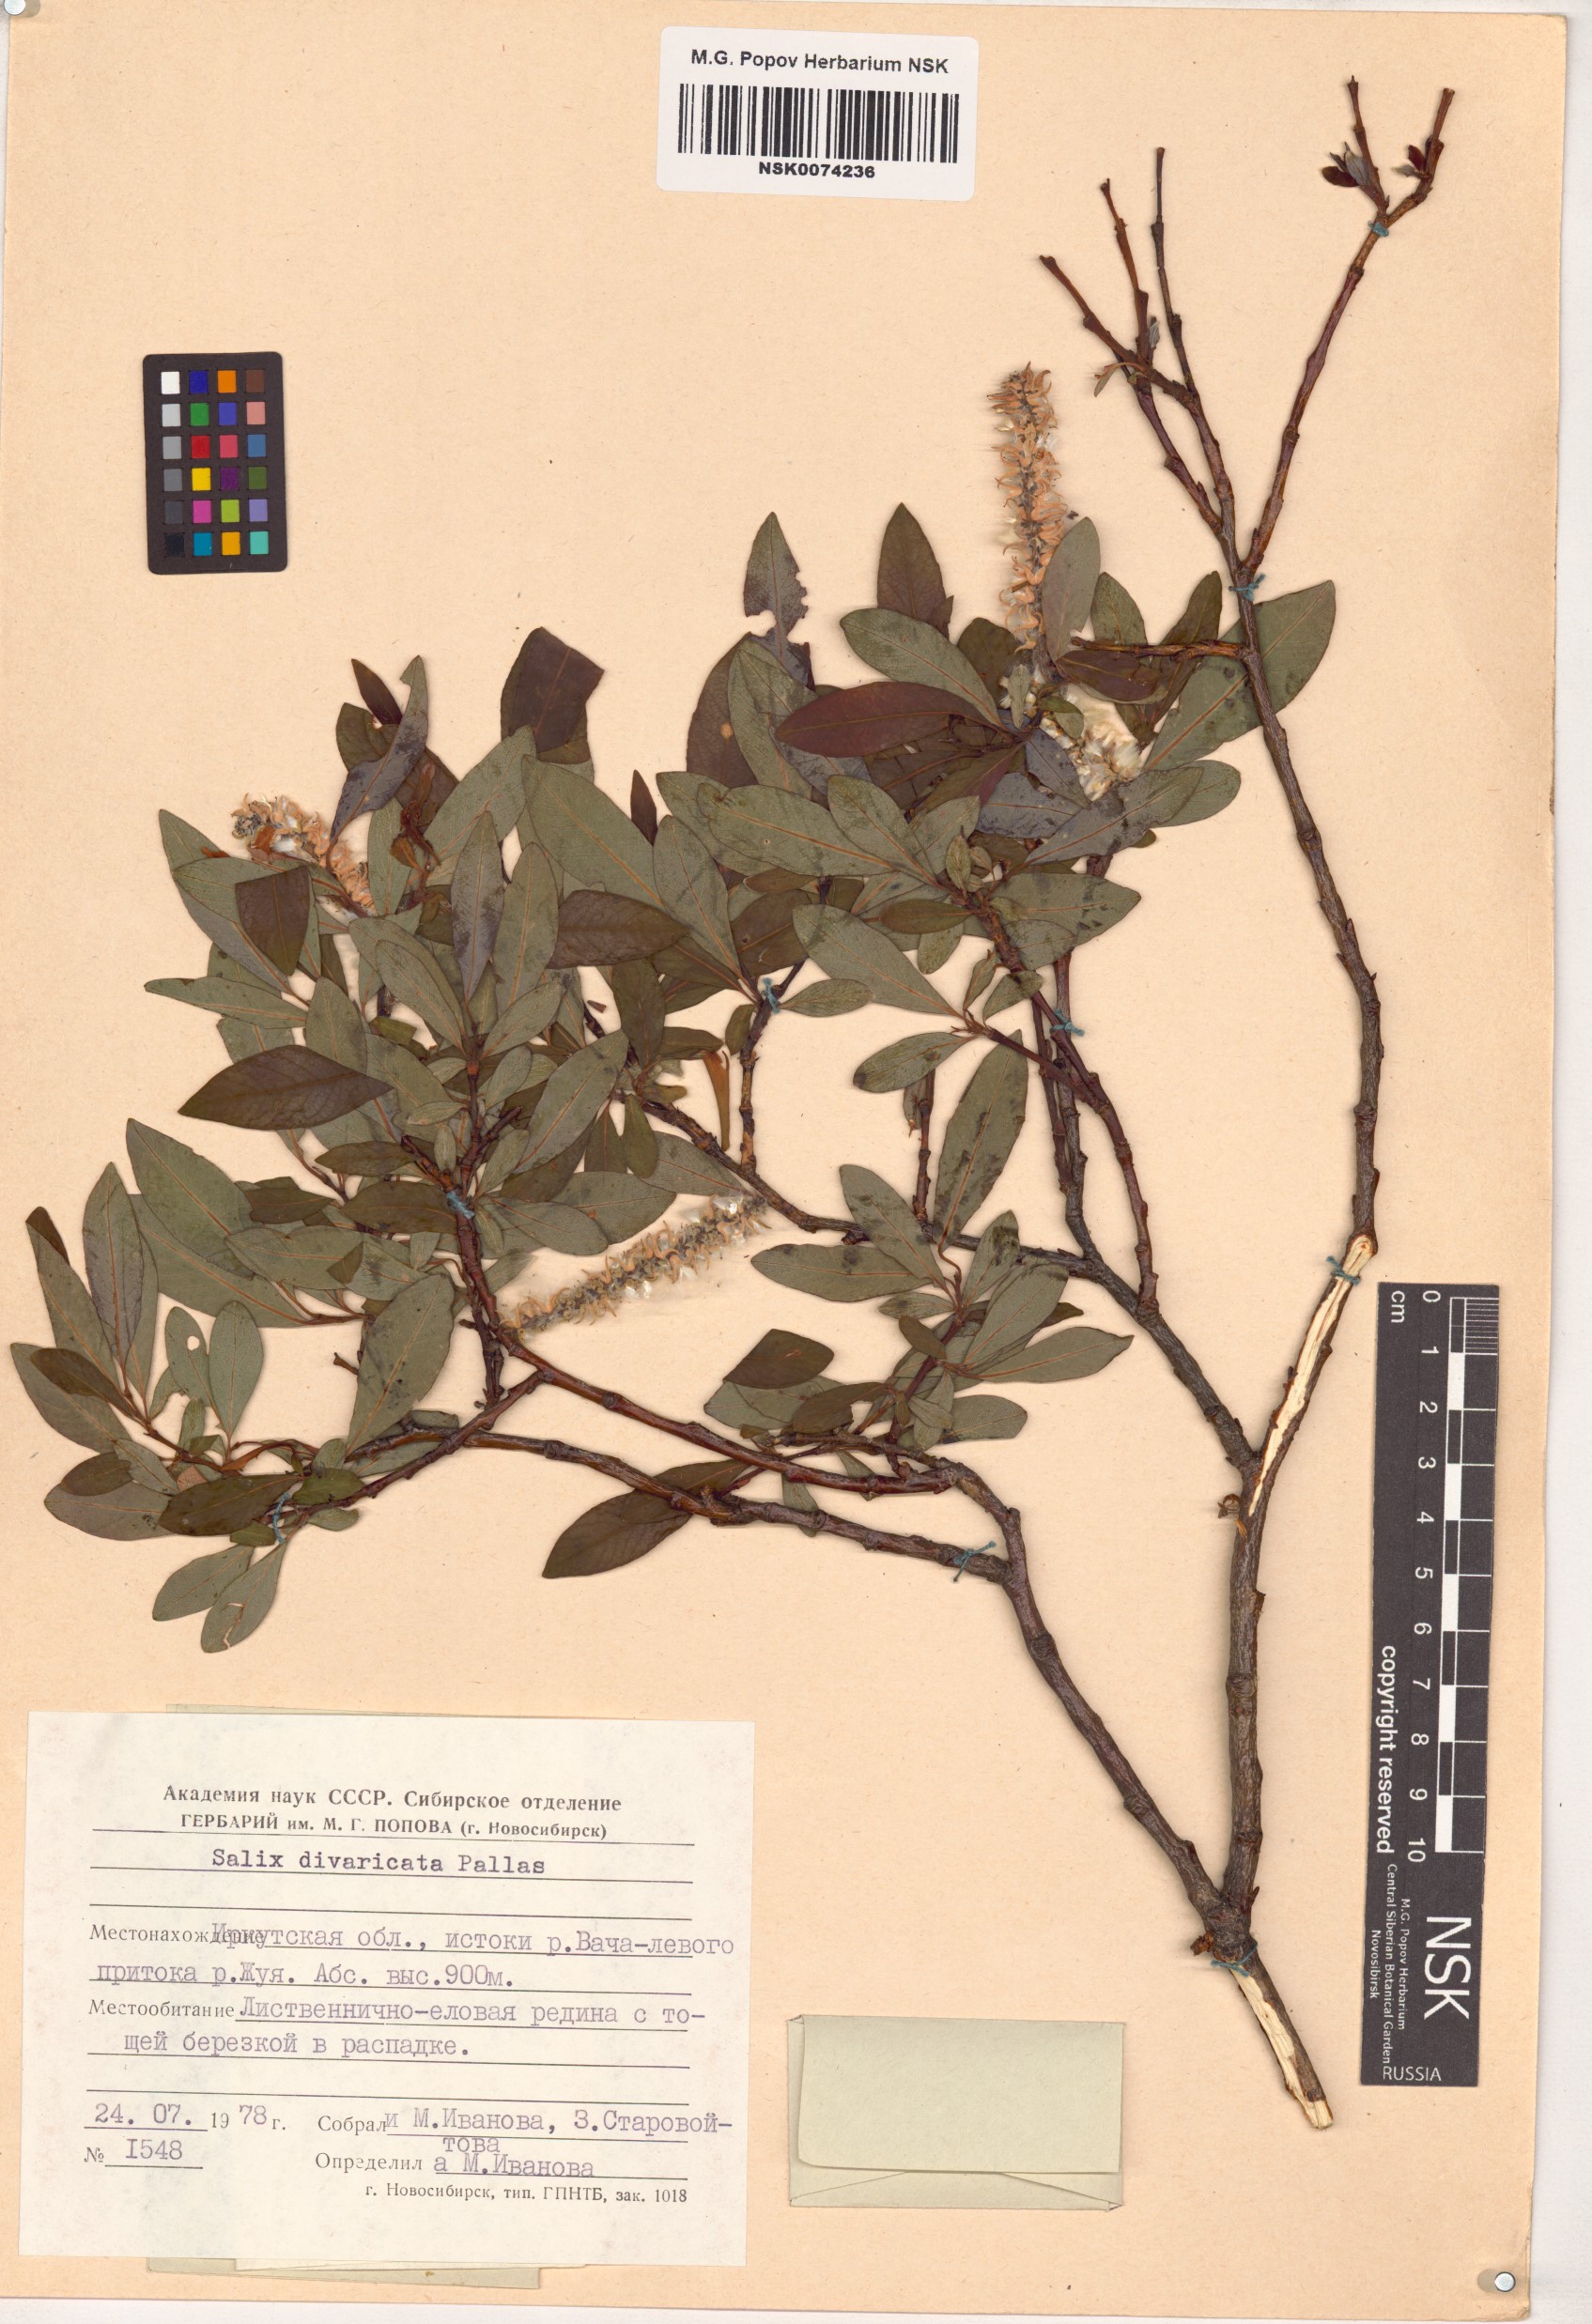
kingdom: Plantae
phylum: Tracheophyta
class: Magnoliopsida
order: Malpighiales
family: Salicaceae
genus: Salix
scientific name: Salix divaricata
